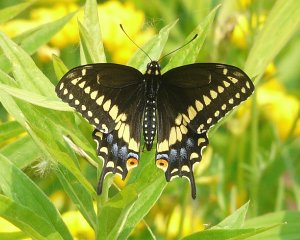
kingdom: Animalia
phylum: Arthropoda
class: Insecta
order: Lepidoptera
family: Papilionidae
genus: Papilio
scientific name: Papilio polyxenes
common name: Black Swallowtail
